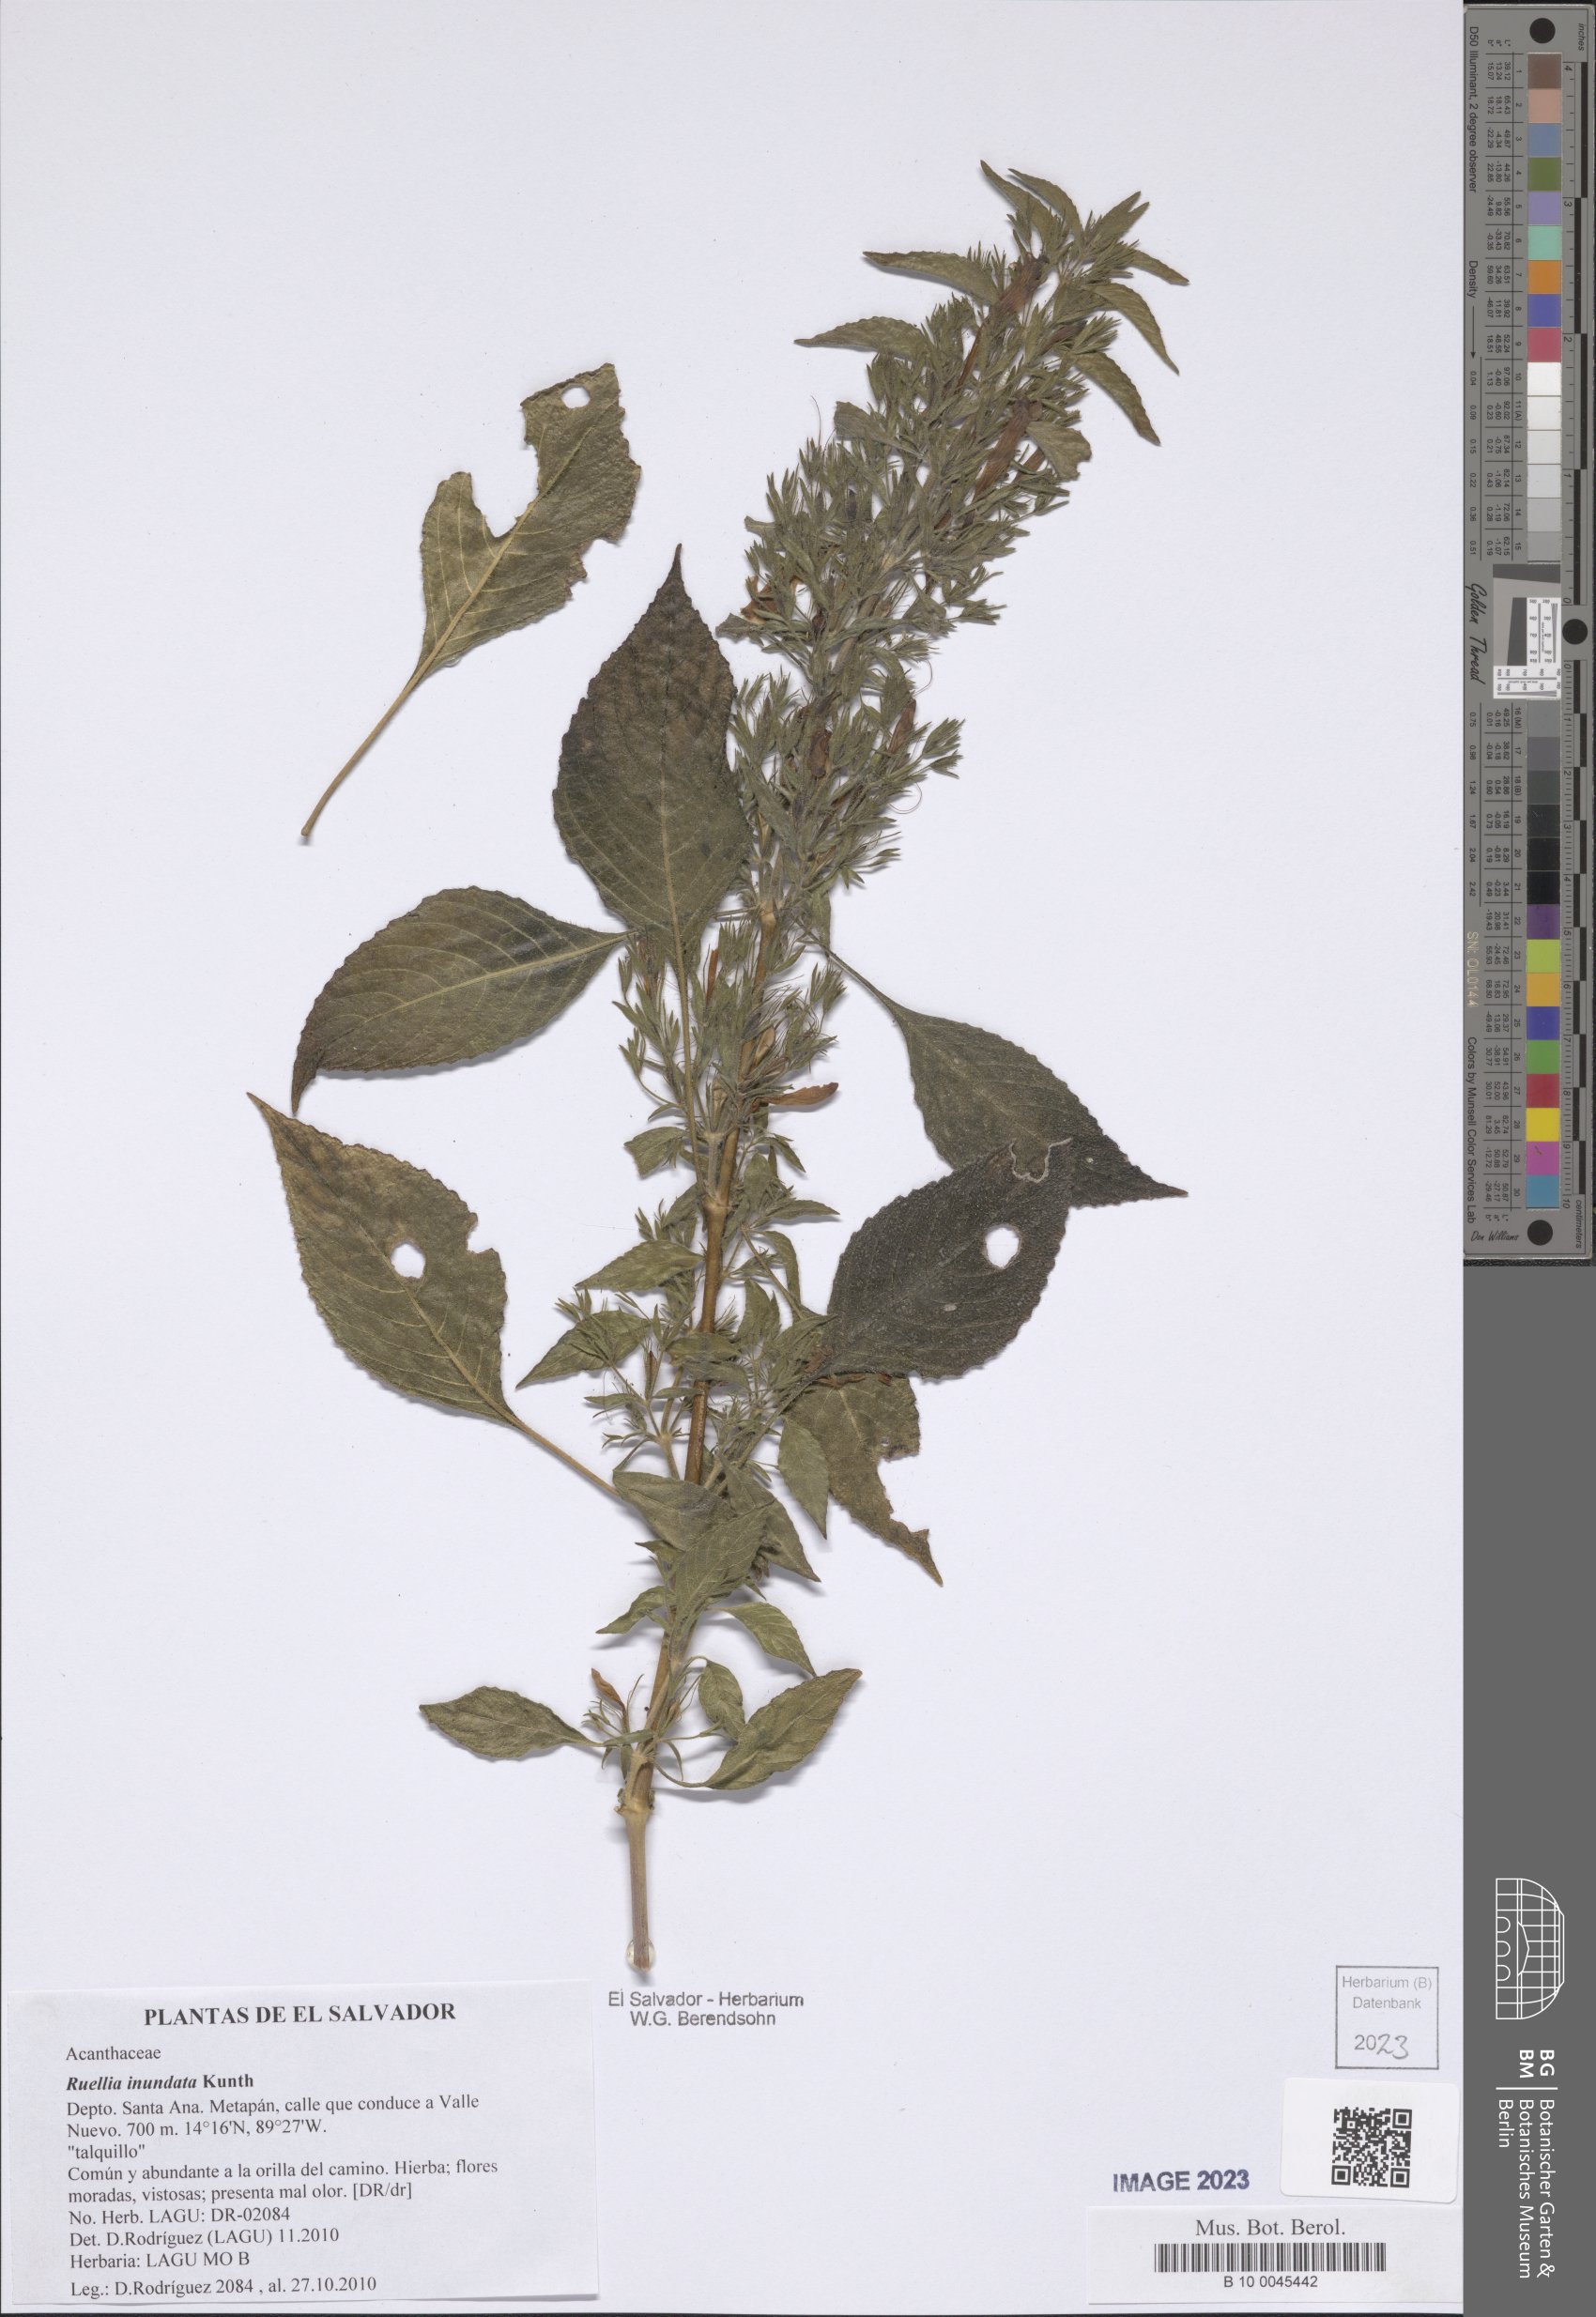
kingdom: Plantae
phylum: Tracheophyta
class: Magnoliopsida
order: Lamiales
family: Acanthaceae
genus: Ruellia
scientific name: Ruellia inundata
